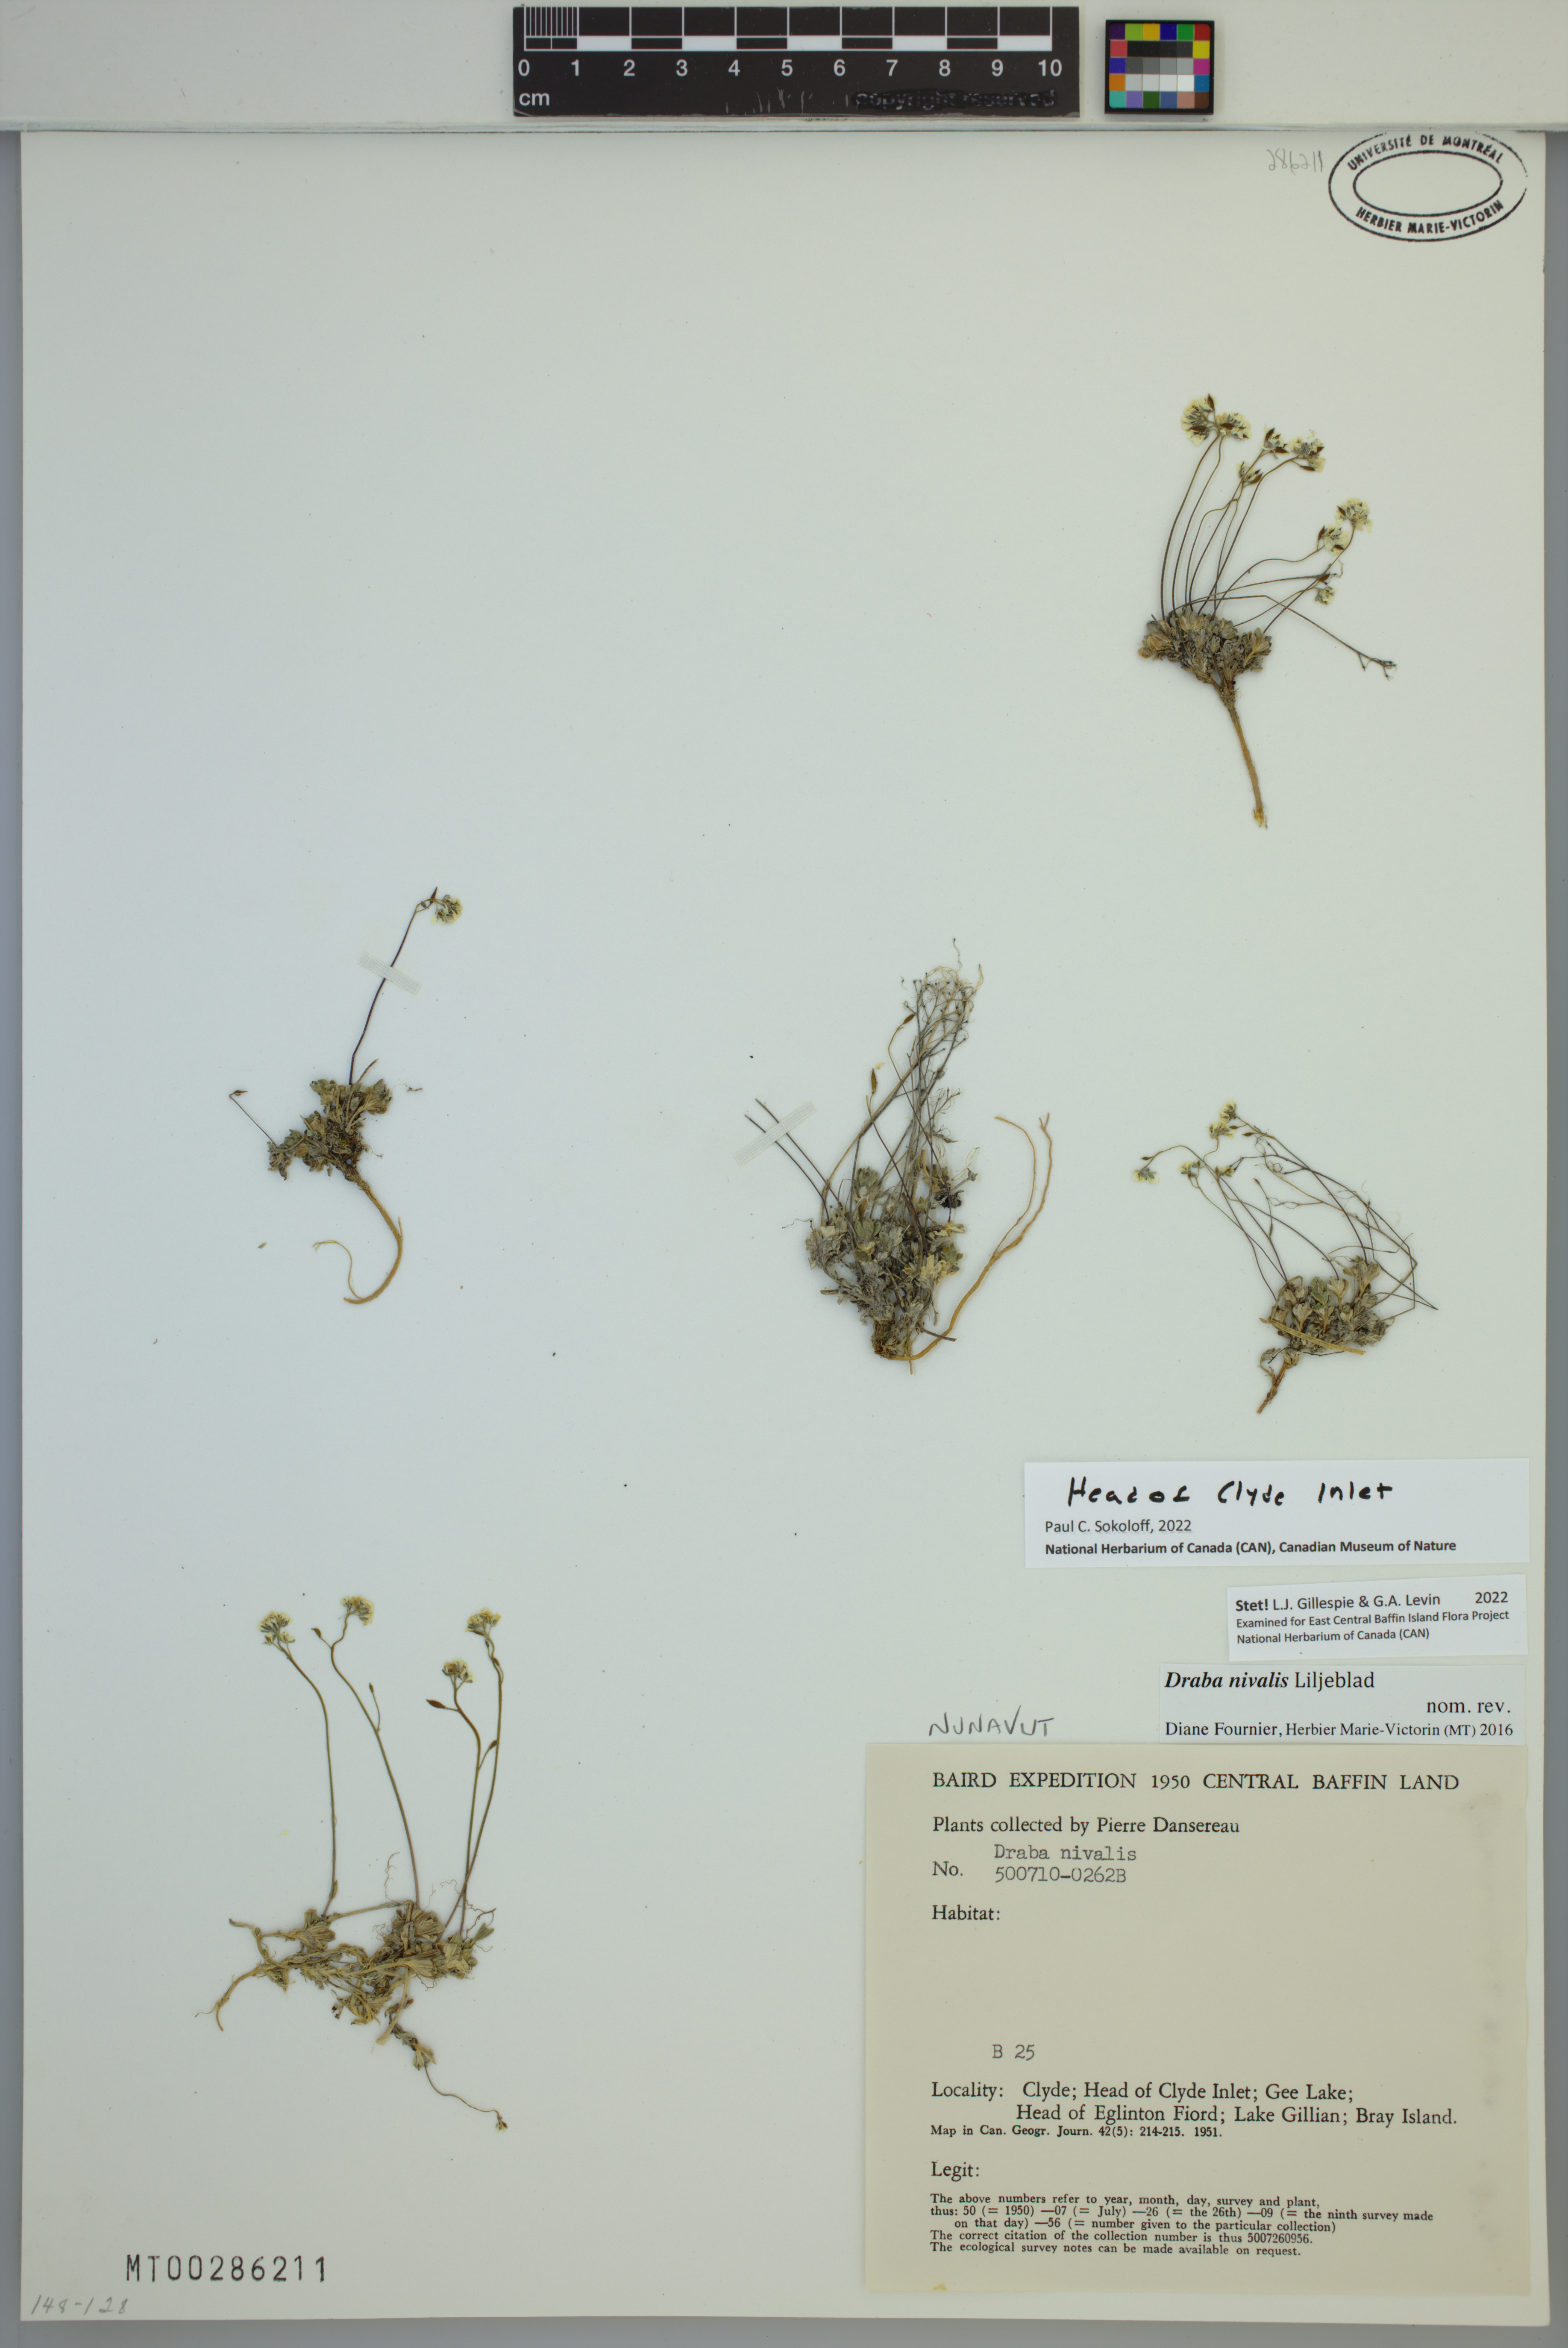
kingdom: Plantae
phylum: Tracheophyta
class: Magnoliopsida
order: Brassicales
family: Brassicaceae
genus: Draba
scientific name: Draba nivalis
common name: Snow draba
